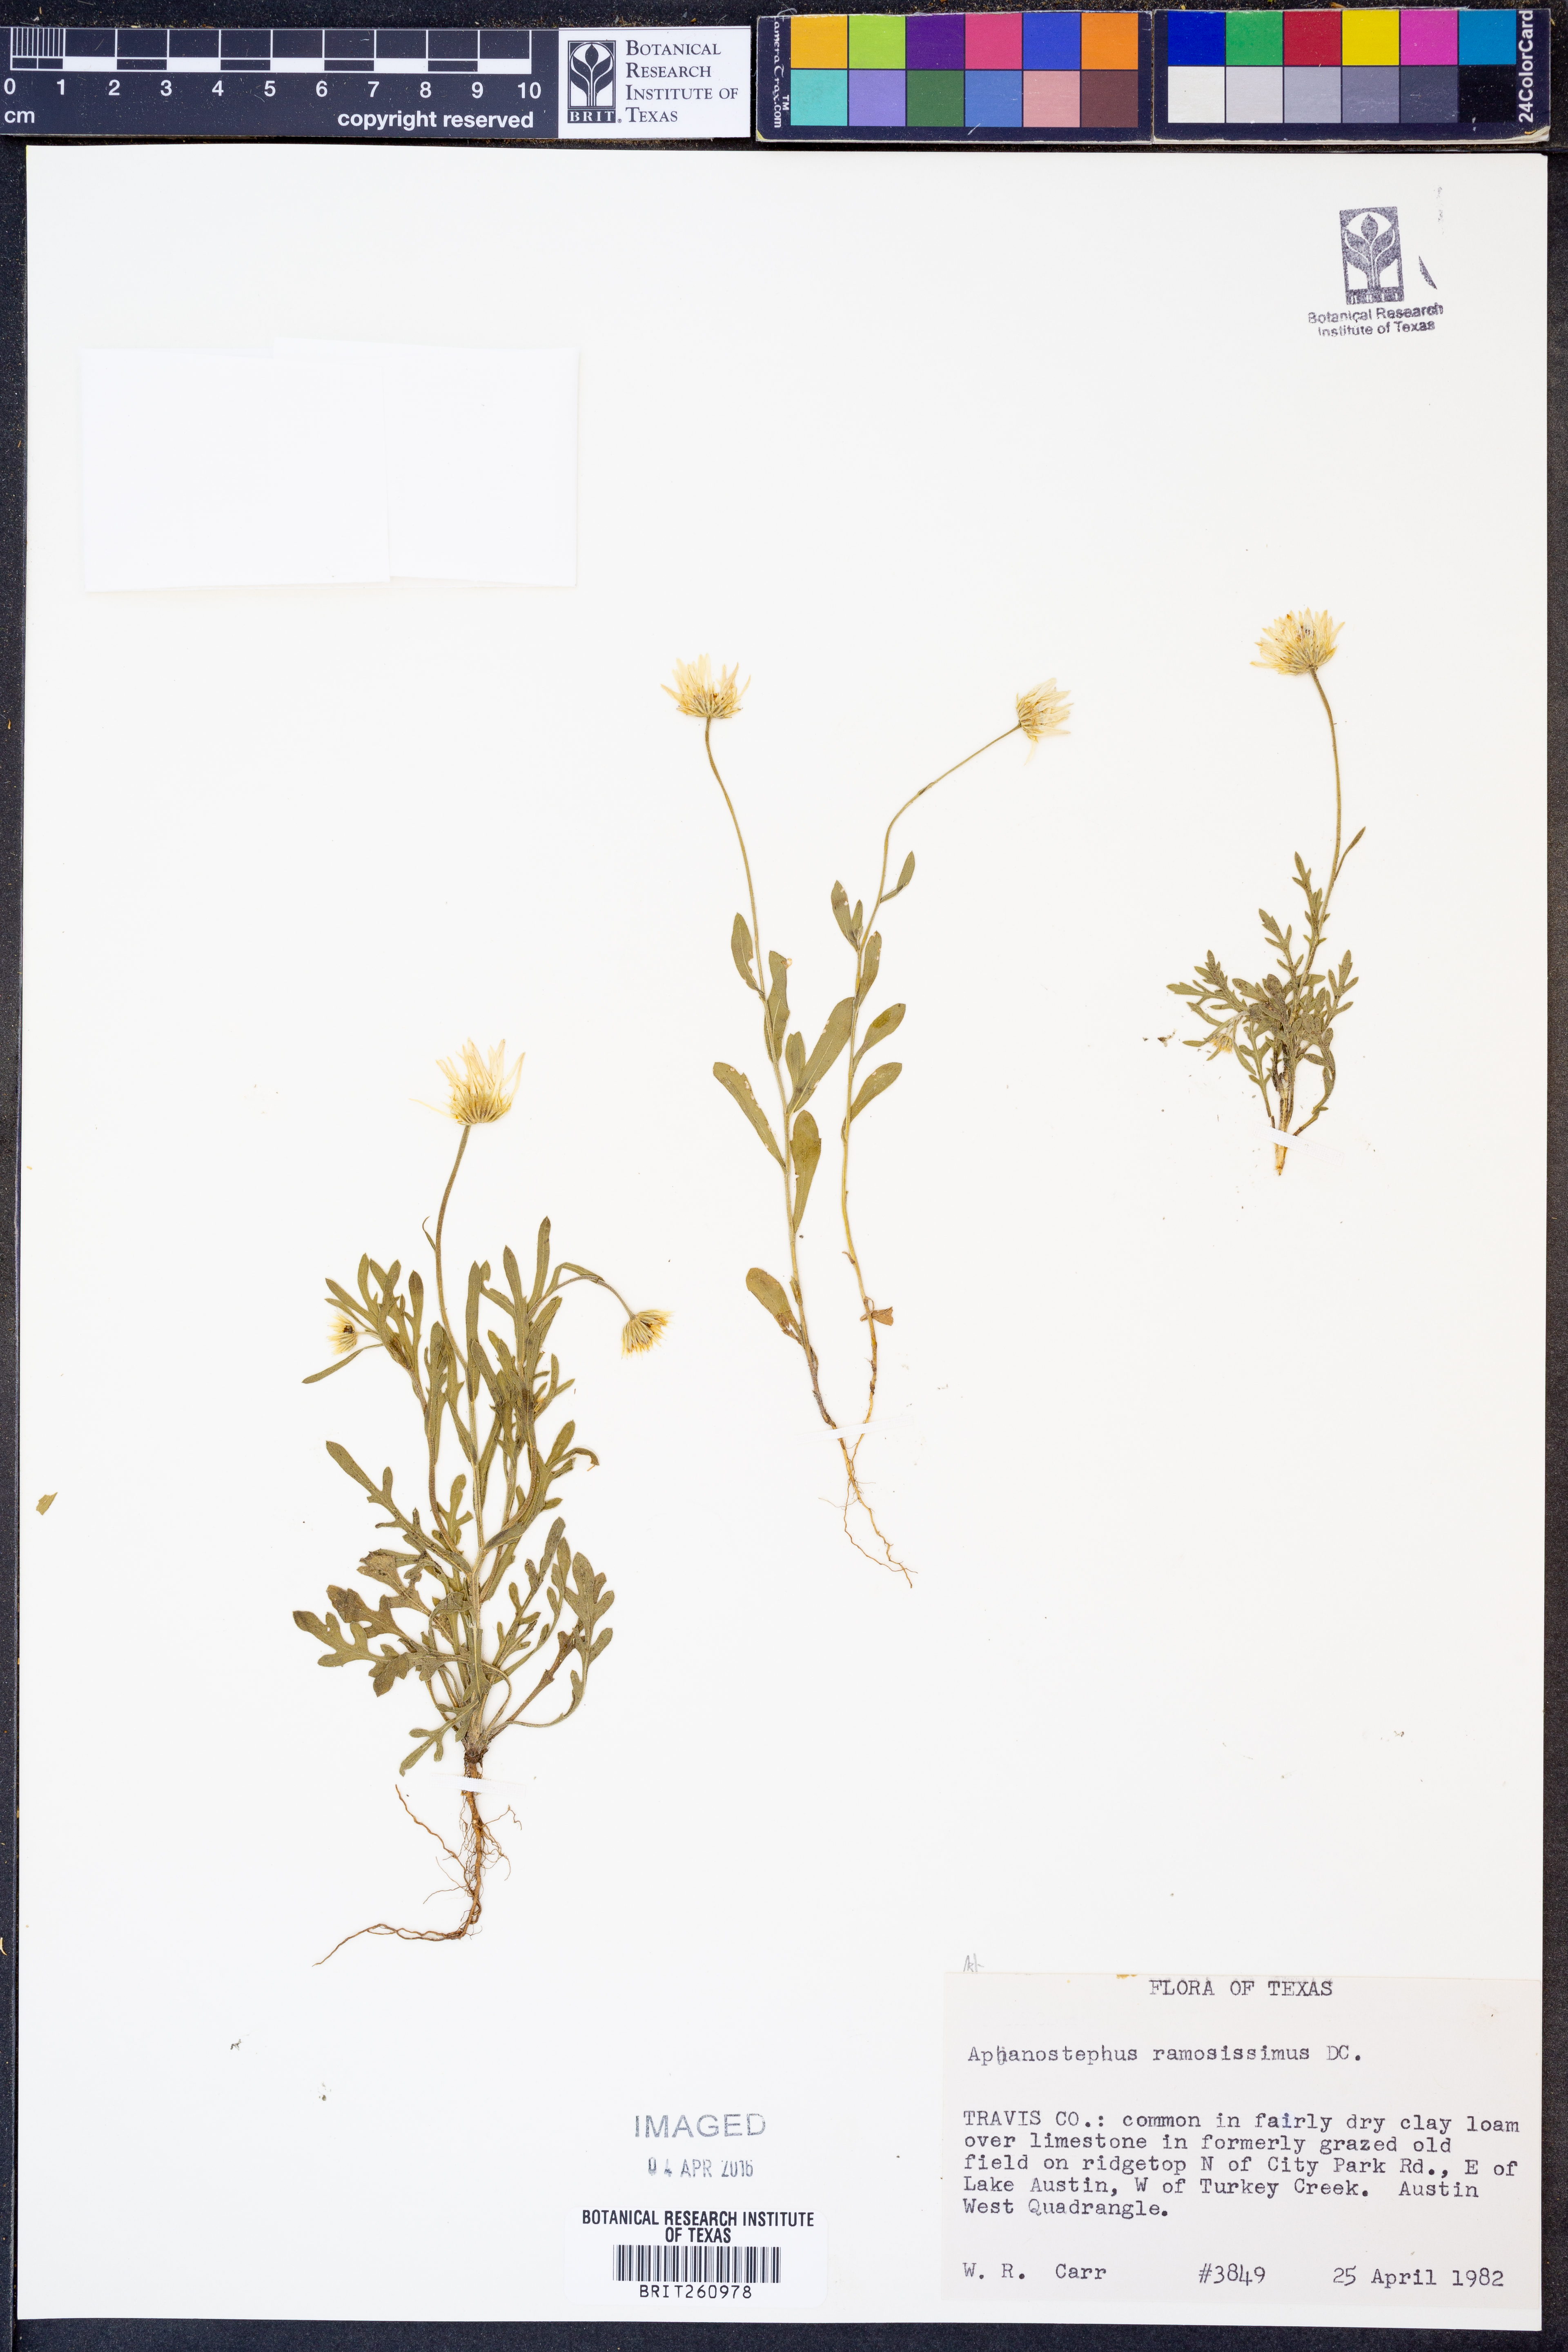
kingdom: Plantae
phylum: Tracheophyta
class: Magnoliopsida
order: Asterales
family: Asteraceae
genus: Aphanostephus
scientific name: Aphanostephus ramosissimus
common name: Plains lazy daisy
